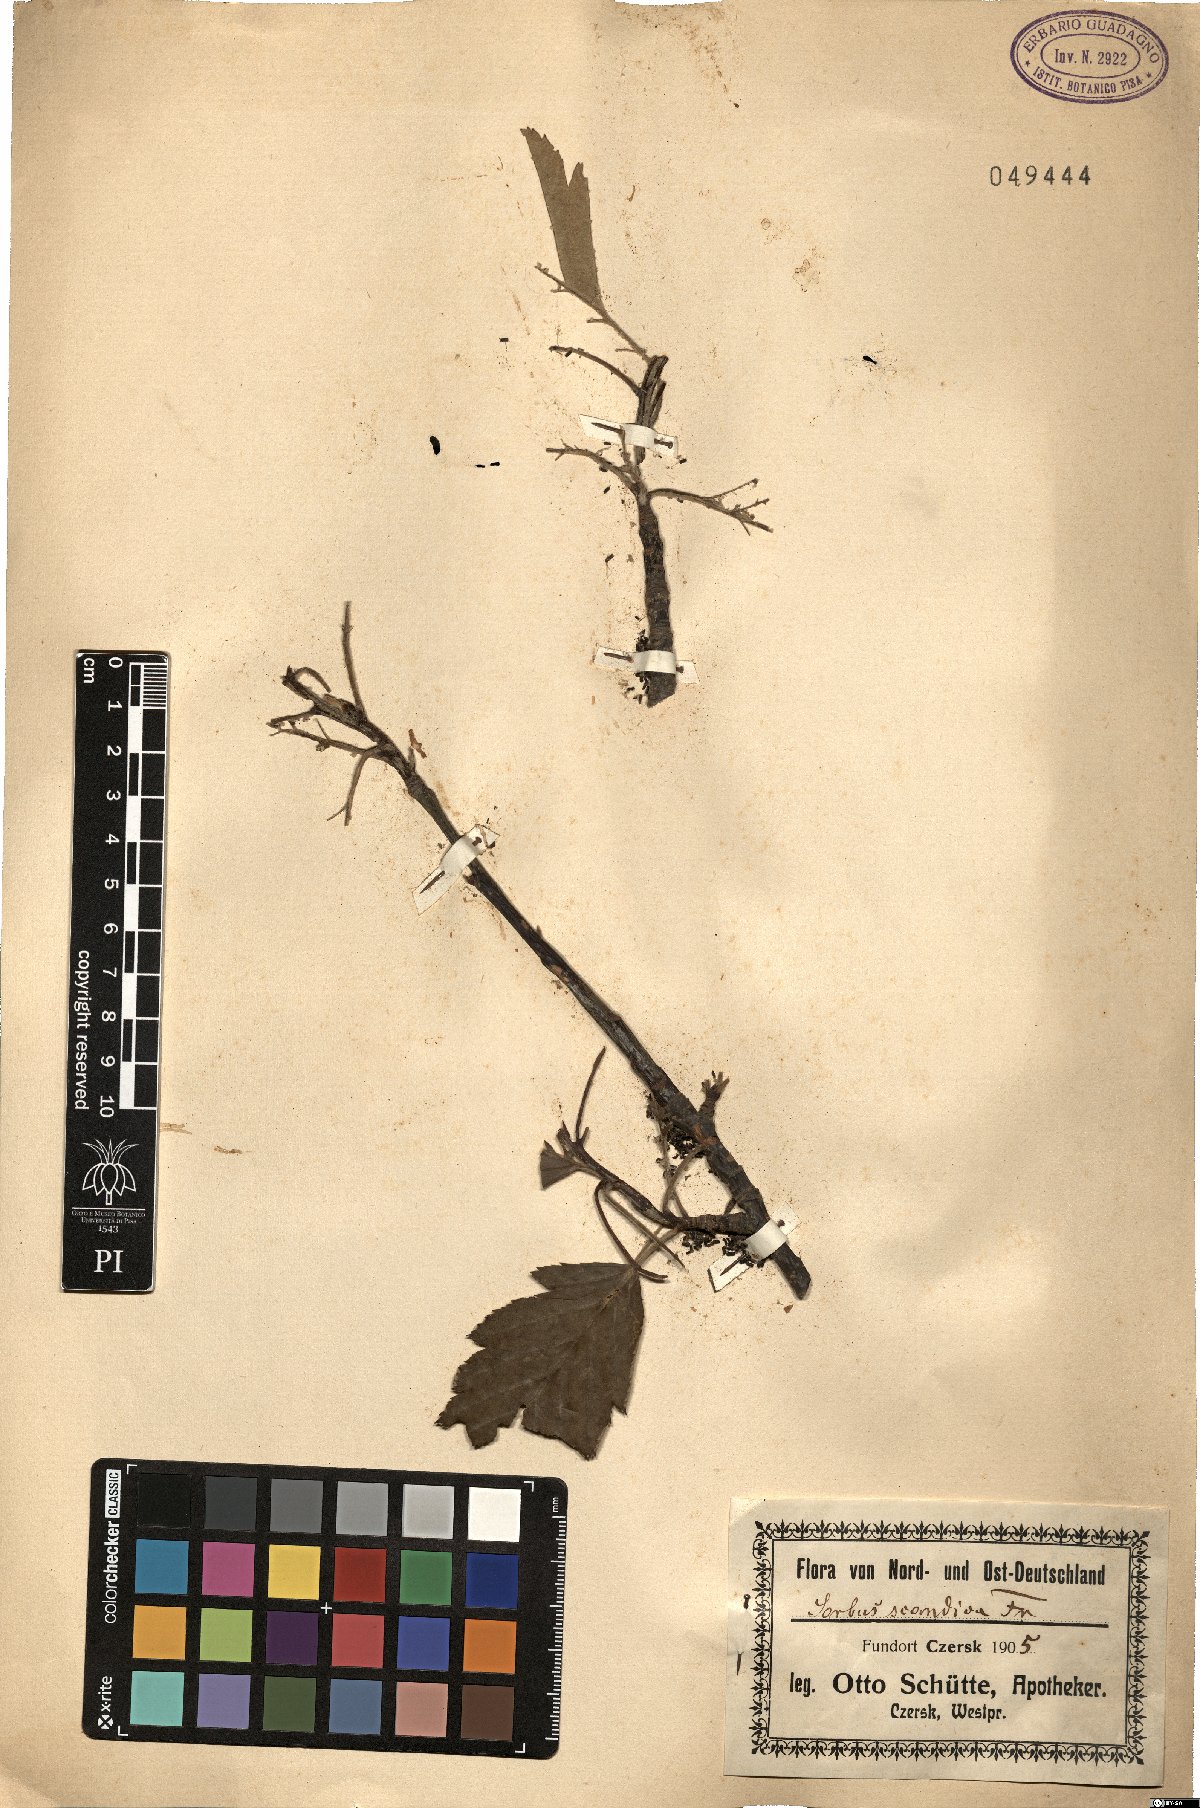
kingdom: Plantae
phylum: Tracheophyta
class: Magnoliopsida
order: Rosales
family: Rosaceae
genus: Scandosorbus
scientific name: Scandosorbus intermedia
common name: Swedish whitebeam
